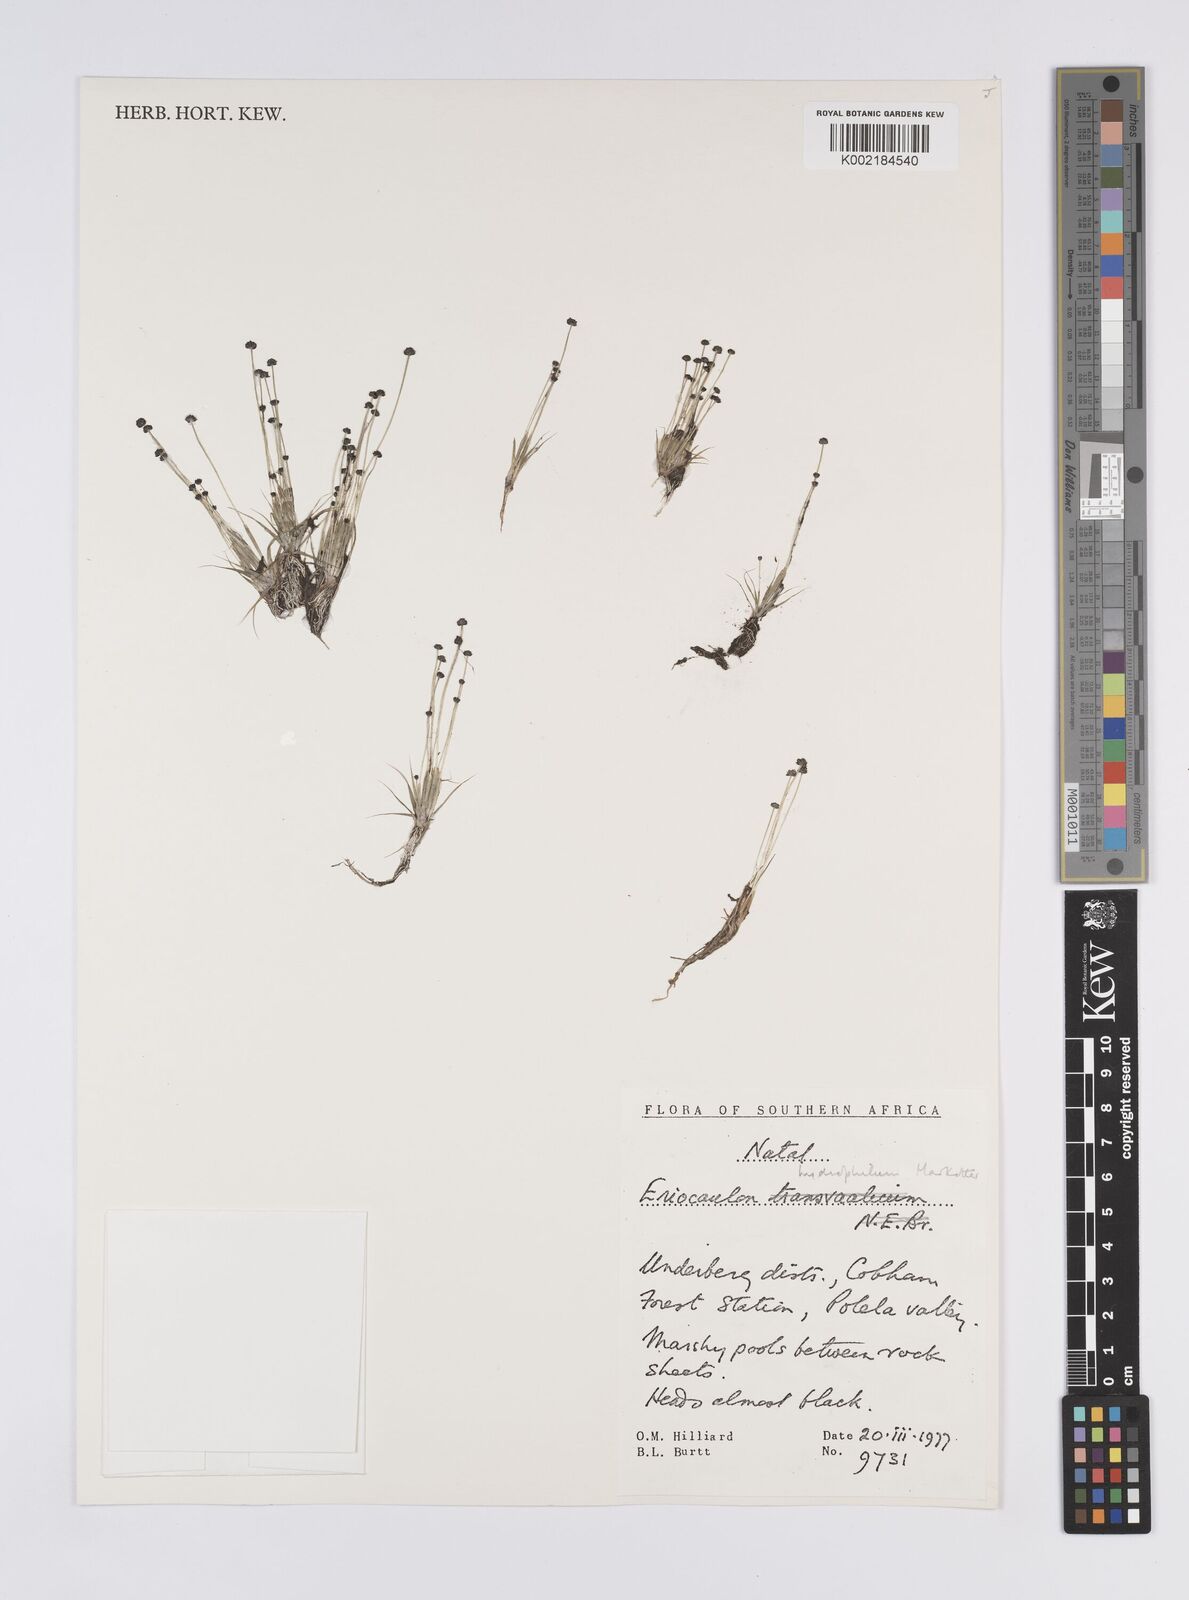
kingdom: Plantae
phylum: Tracheophyta
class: Liliopsida
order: Poales
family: Eriocaulaceae
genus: Eriocaulon
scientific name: Eriocaulon hydrophilum
